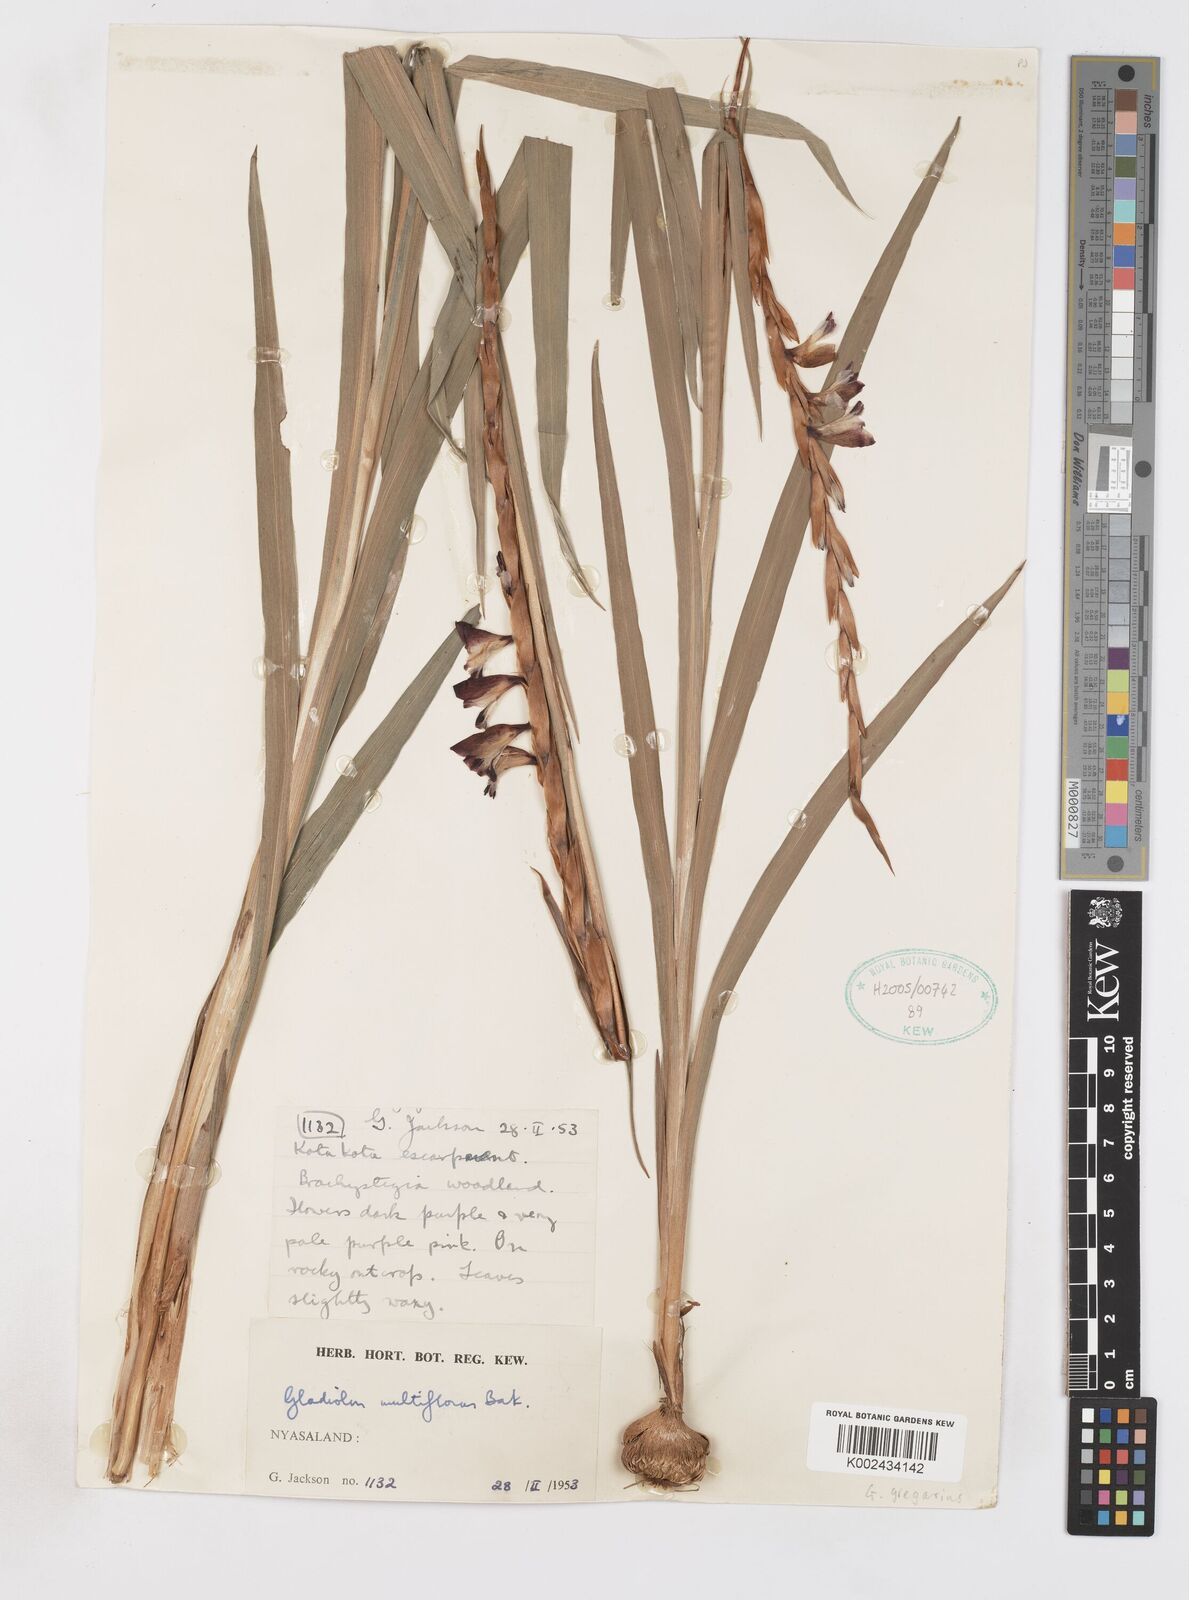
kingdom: Plantae
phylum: Tracheophyta
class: Liliopsida
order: Asparagales
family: Iridaceae
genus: Gladiolus
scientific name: Gladiolus gregarius
